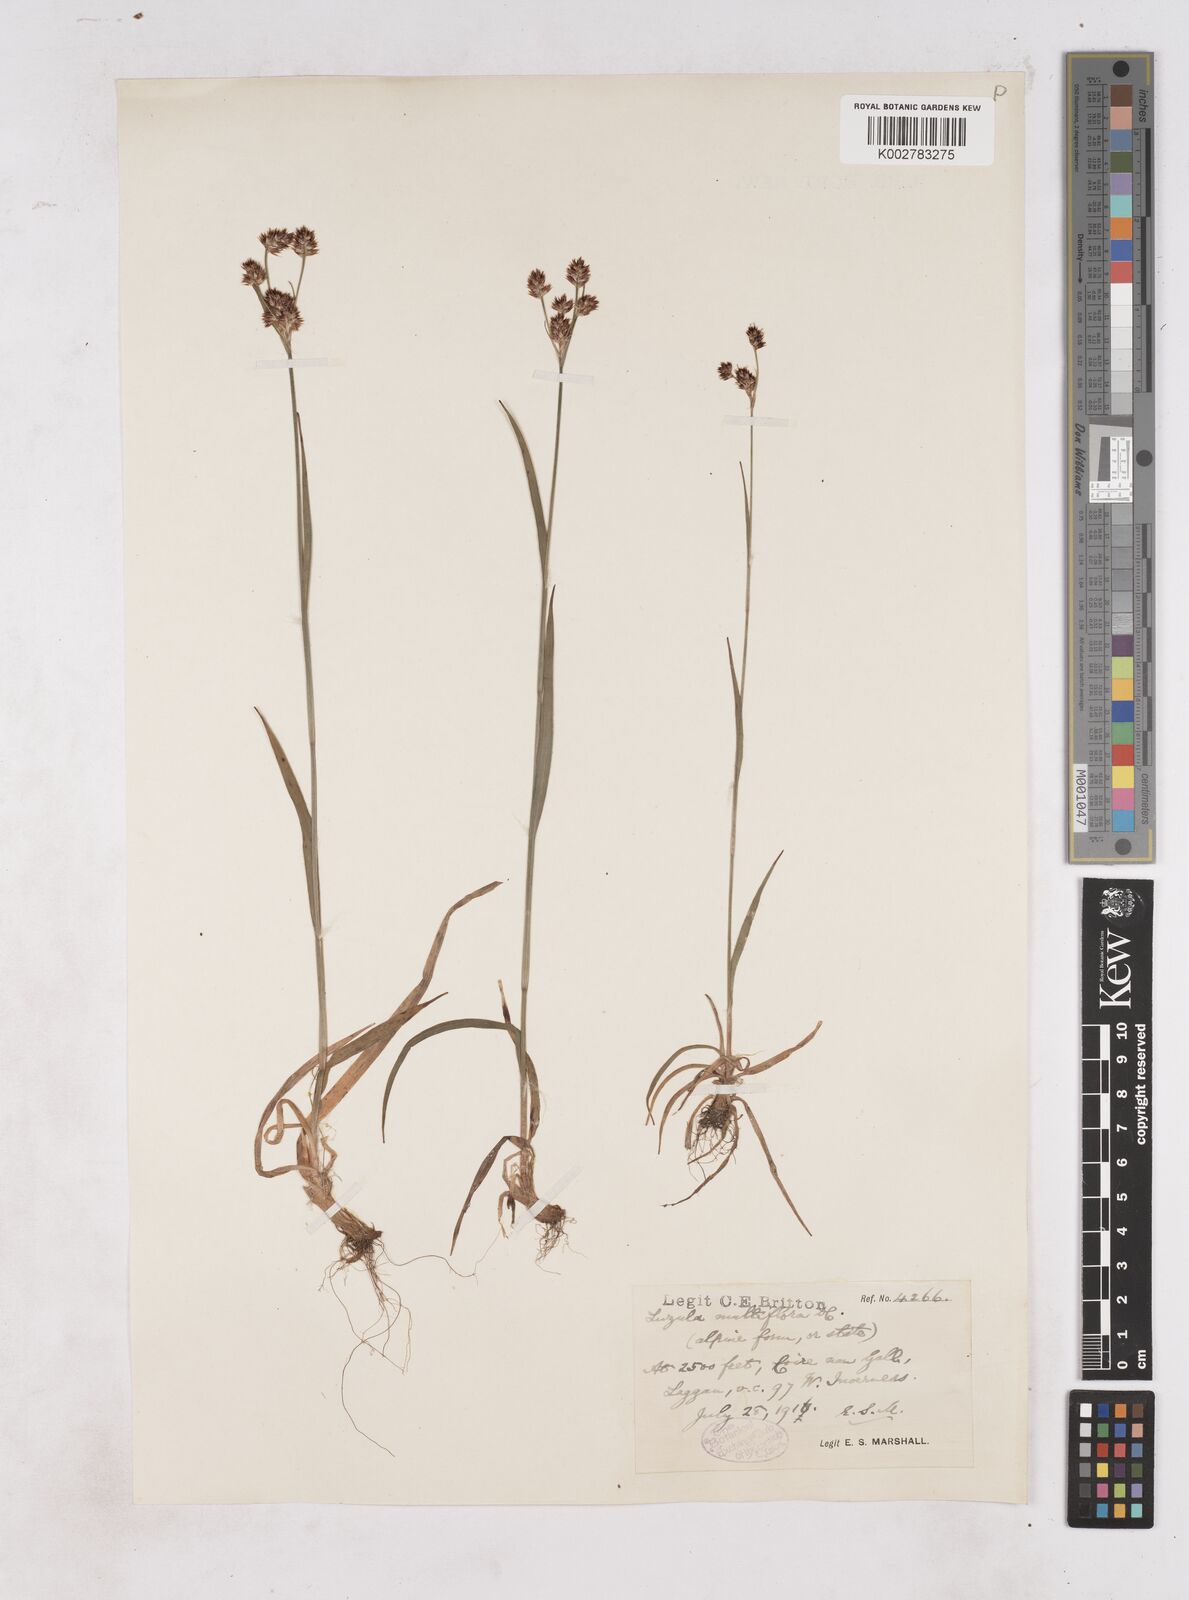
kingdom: Plantae
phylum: Tracheophyta
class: Liliopsida
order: Poales
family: Juncaceae
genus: Luzula
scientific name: Luzula multiflora
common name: Heath wood-rush
